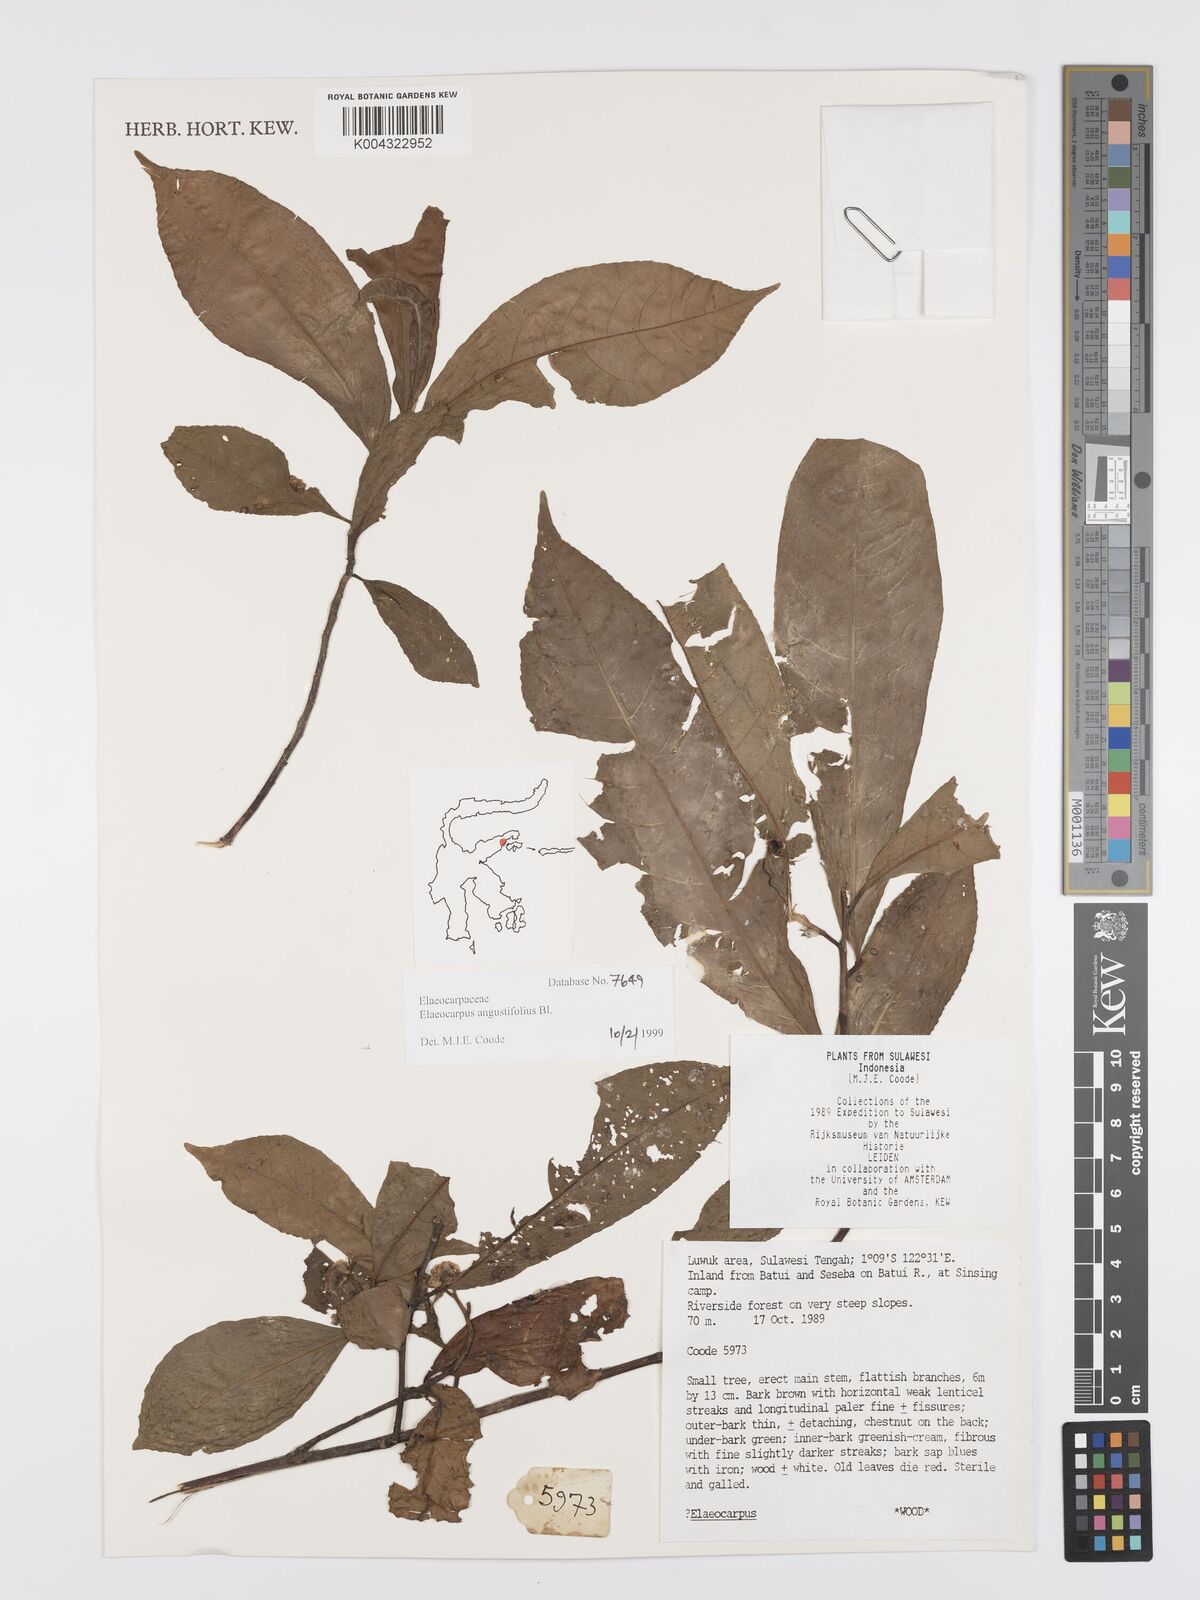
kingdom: Plantae
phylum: Tracheophyta
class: Magnoliopsida
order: Oxalidales
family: Elaeocarpaceae
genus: Elaeocarpus
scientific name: Elaeocarpus
